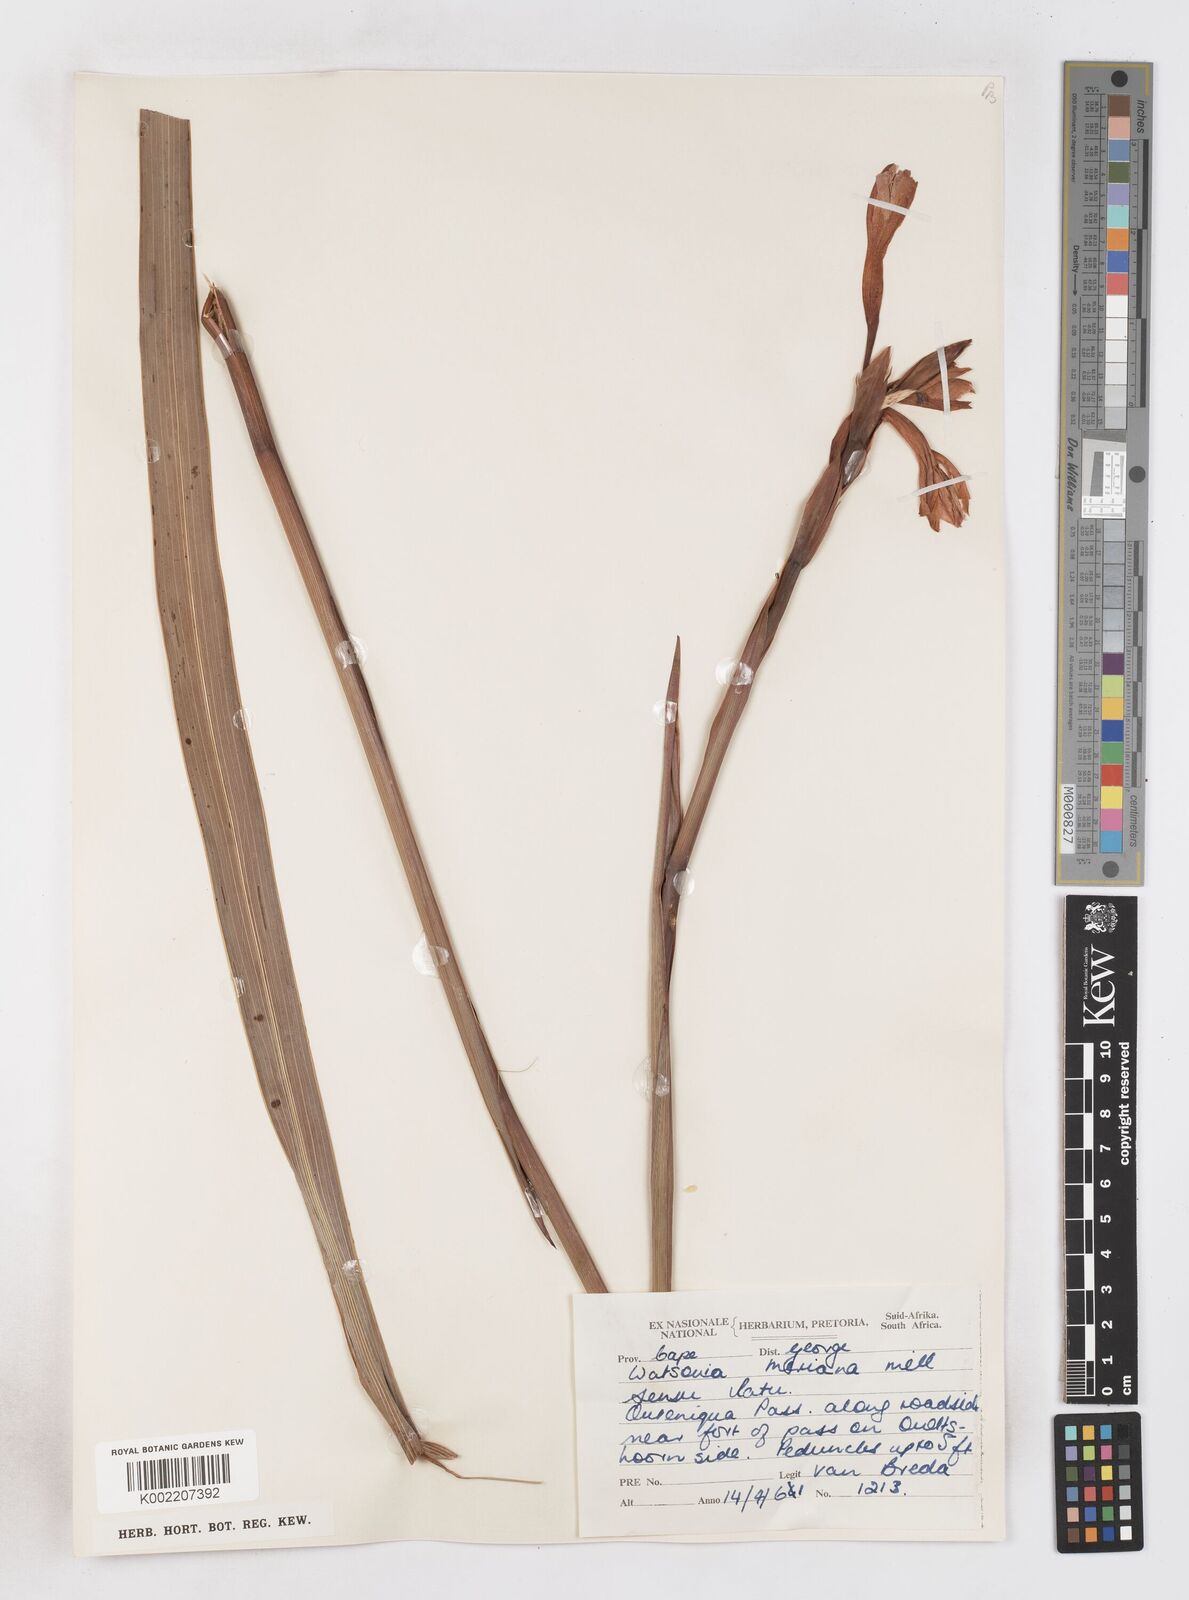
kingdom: Plantae
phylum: Tracheophyta
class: Liliopsida
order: Asparagales
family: Iridaceae
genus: Watsonia
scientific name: Watsonia pillansii
